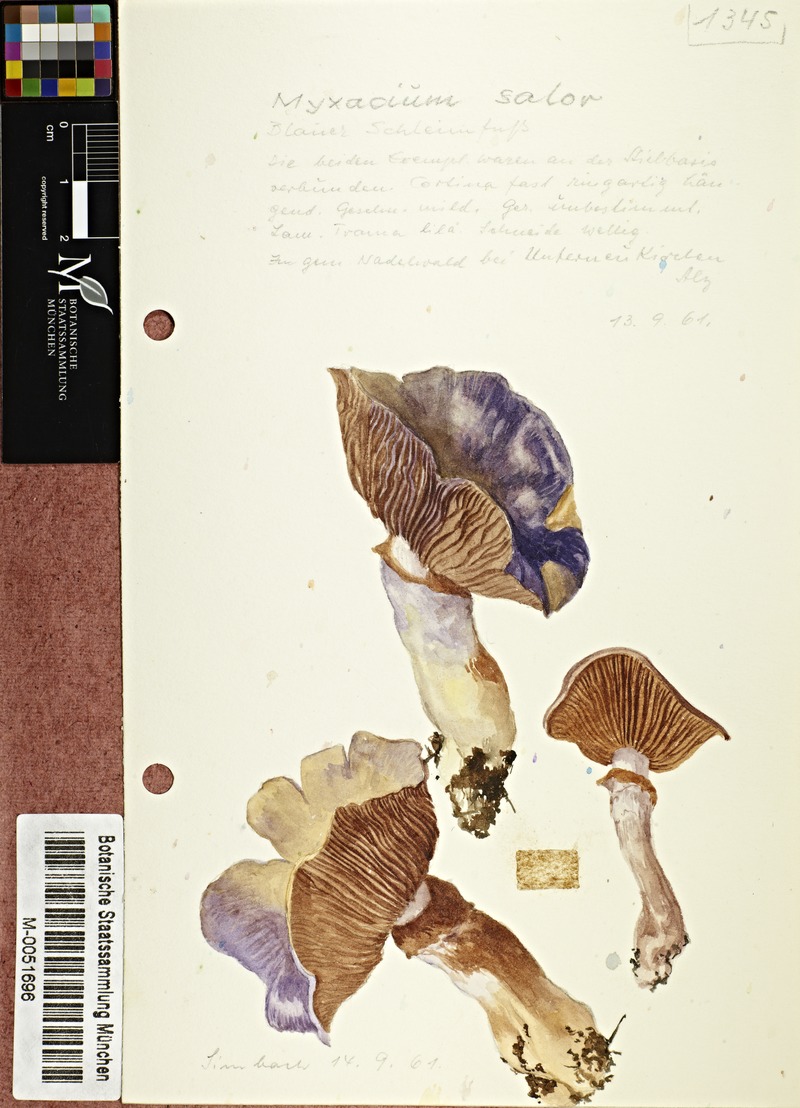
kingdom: Fungi
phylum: Basidiomycota
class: Agaricomycetes
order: Agaricales
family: Cortinariaceae
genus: Cortinarius
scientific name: Cortinarius salor
